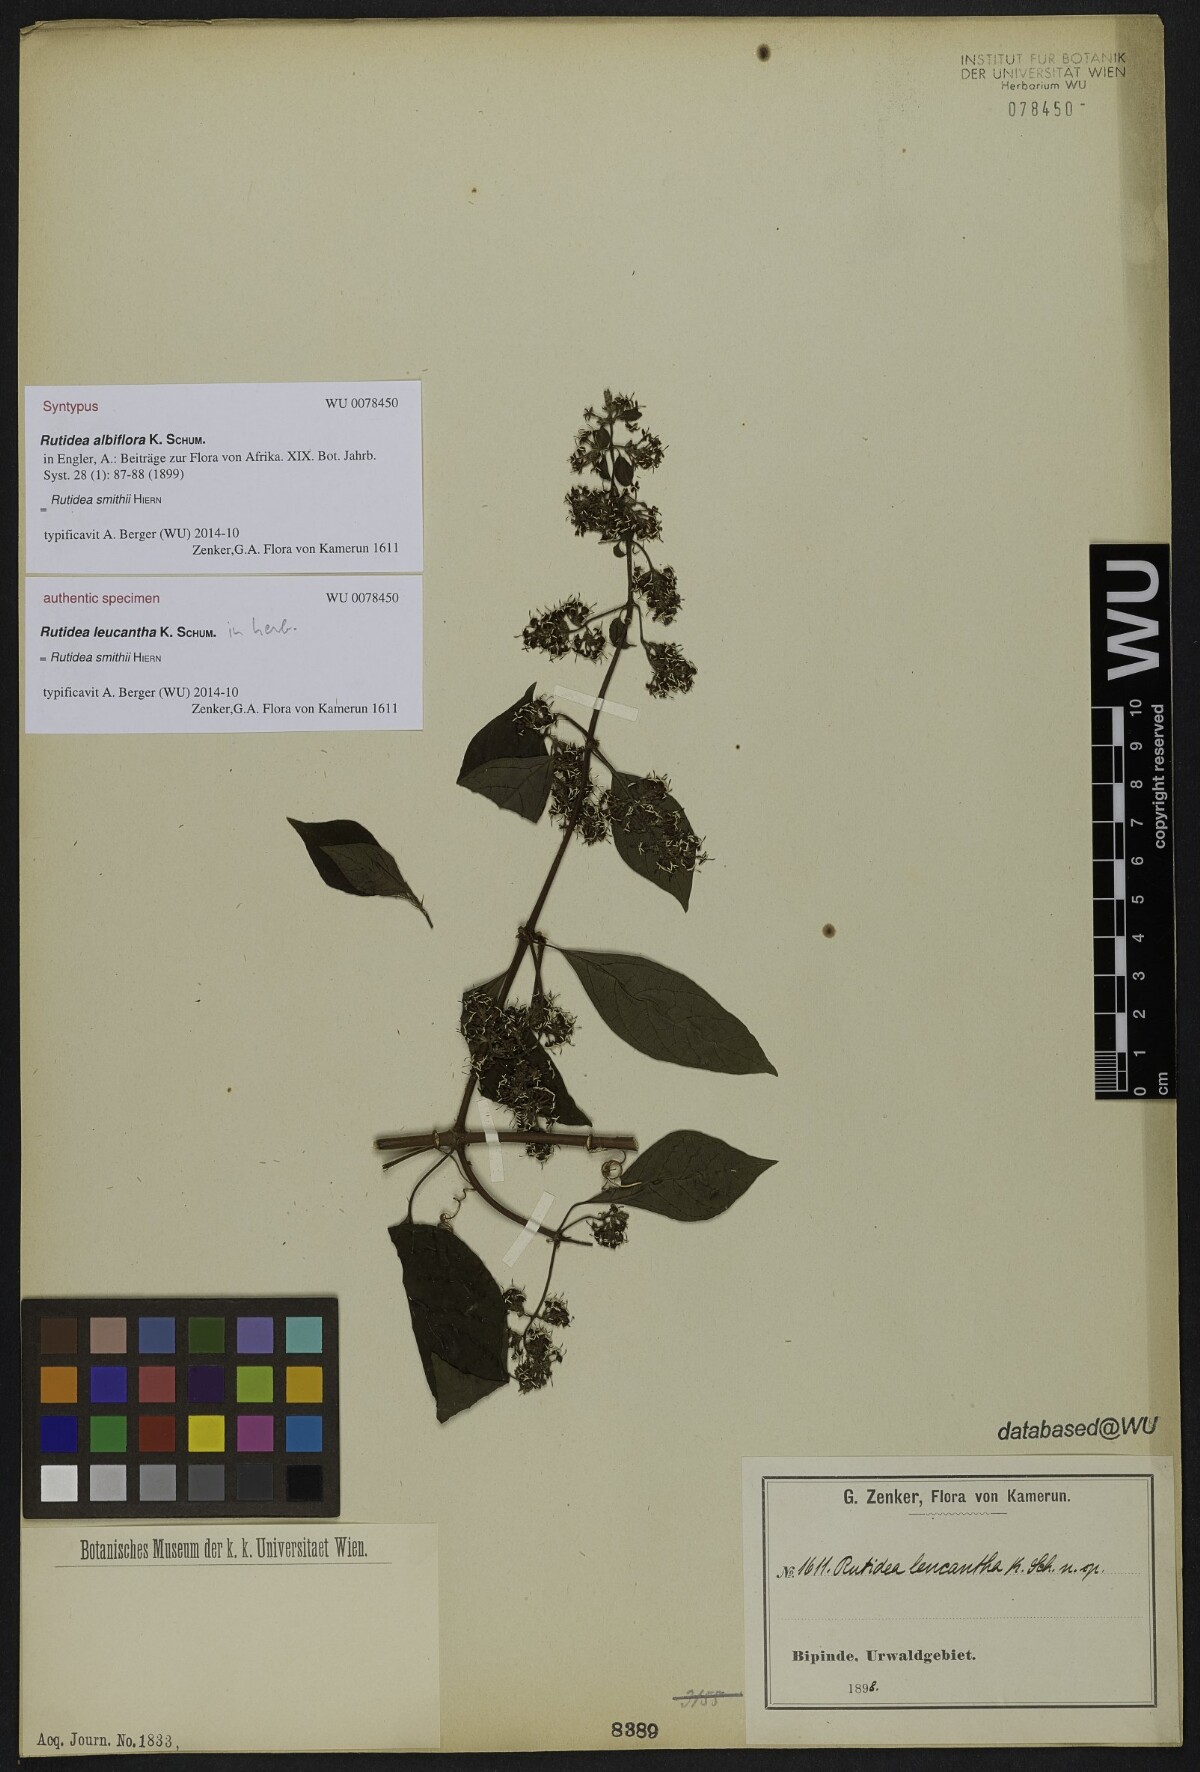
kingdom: Plantae
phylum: Tracheophyta
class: Magnoliopsida
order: Gentianales
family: Rubiaceae
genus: Rutidea
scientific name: Rutidea smithii
